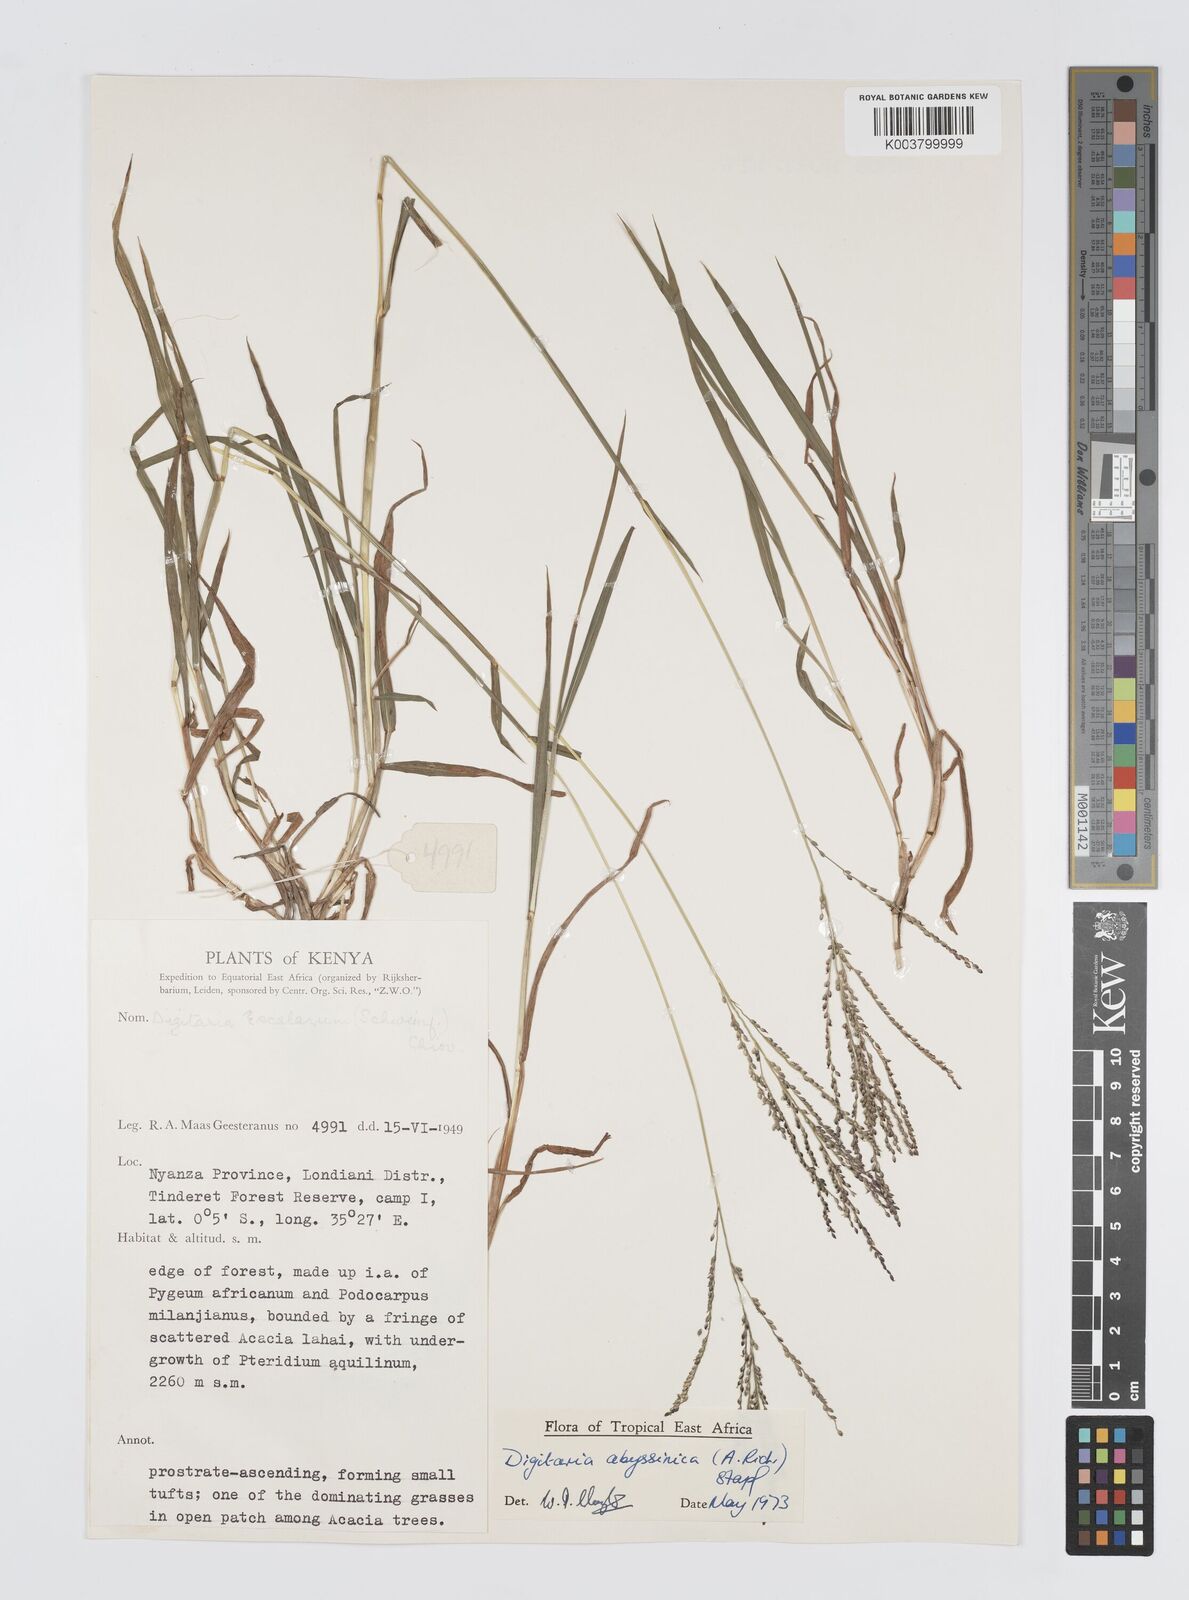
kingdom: Plantae
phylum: Tracheophyta
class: Liliopsida
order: Poales
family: Poaceae
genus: Digitaria
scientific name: Digitaria abyssinica
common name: African couchgrass
